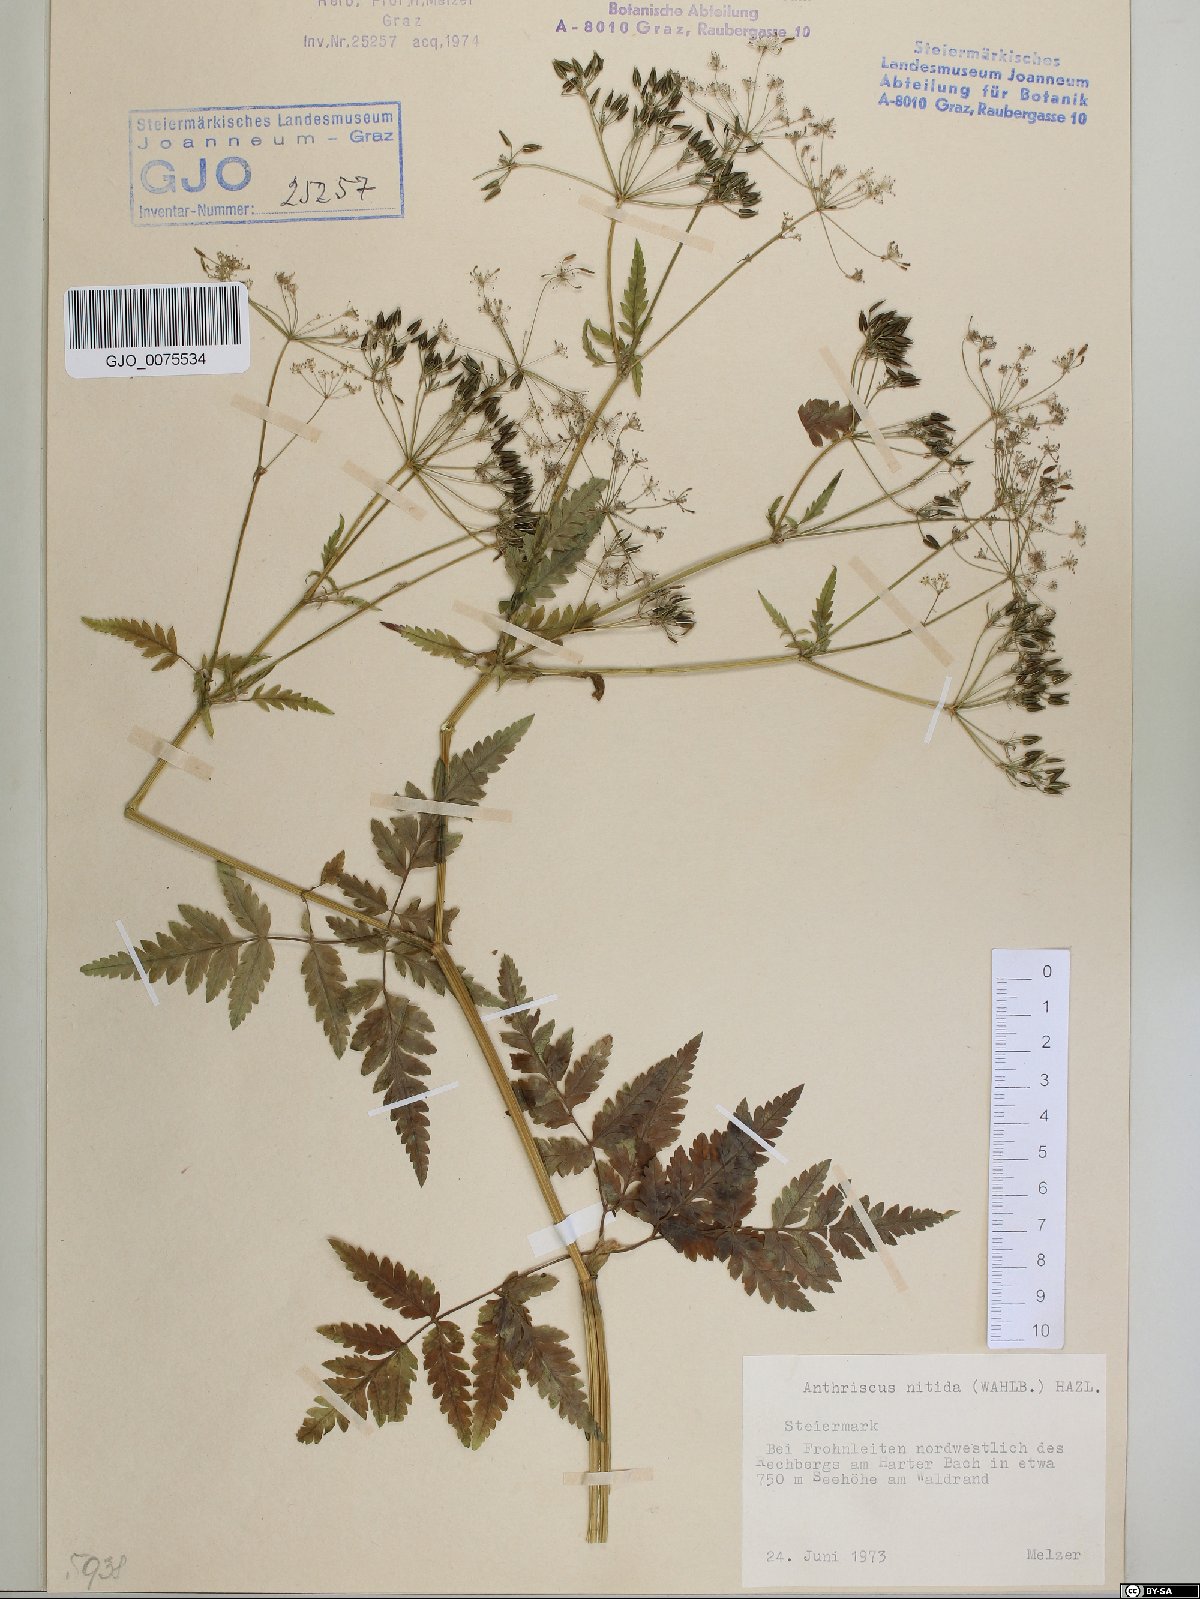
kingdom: Plantae
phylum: Tracheophyta
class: Magnoliopsida
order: Apiales
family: Apiaceae
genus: Anthriscus
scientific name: Anthriscus nitida
